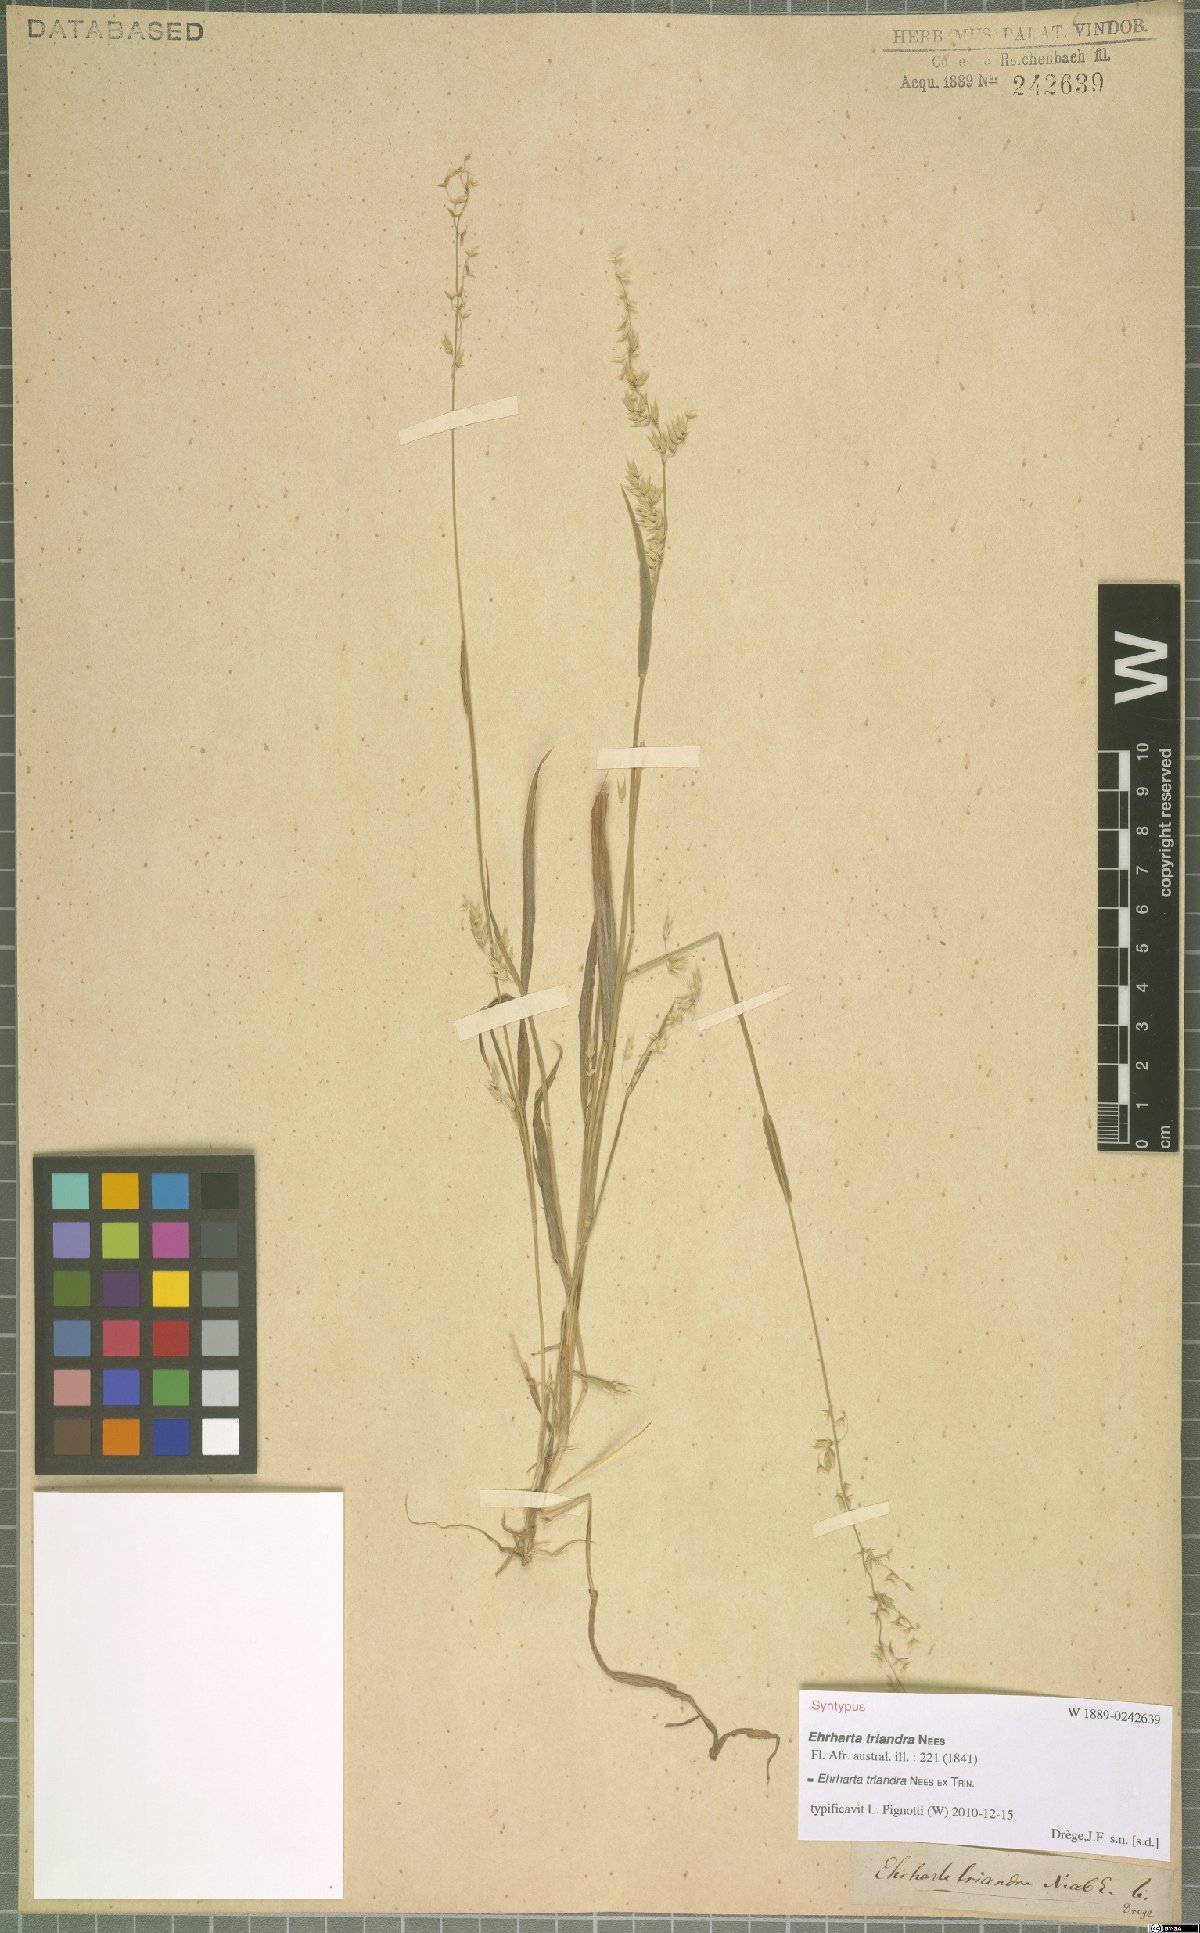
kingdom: Plantae
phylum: Tracheophyta
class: Liliopsida
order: Poales
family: Poaceae
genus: Ehrharta
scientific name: Ehrharta triandra
